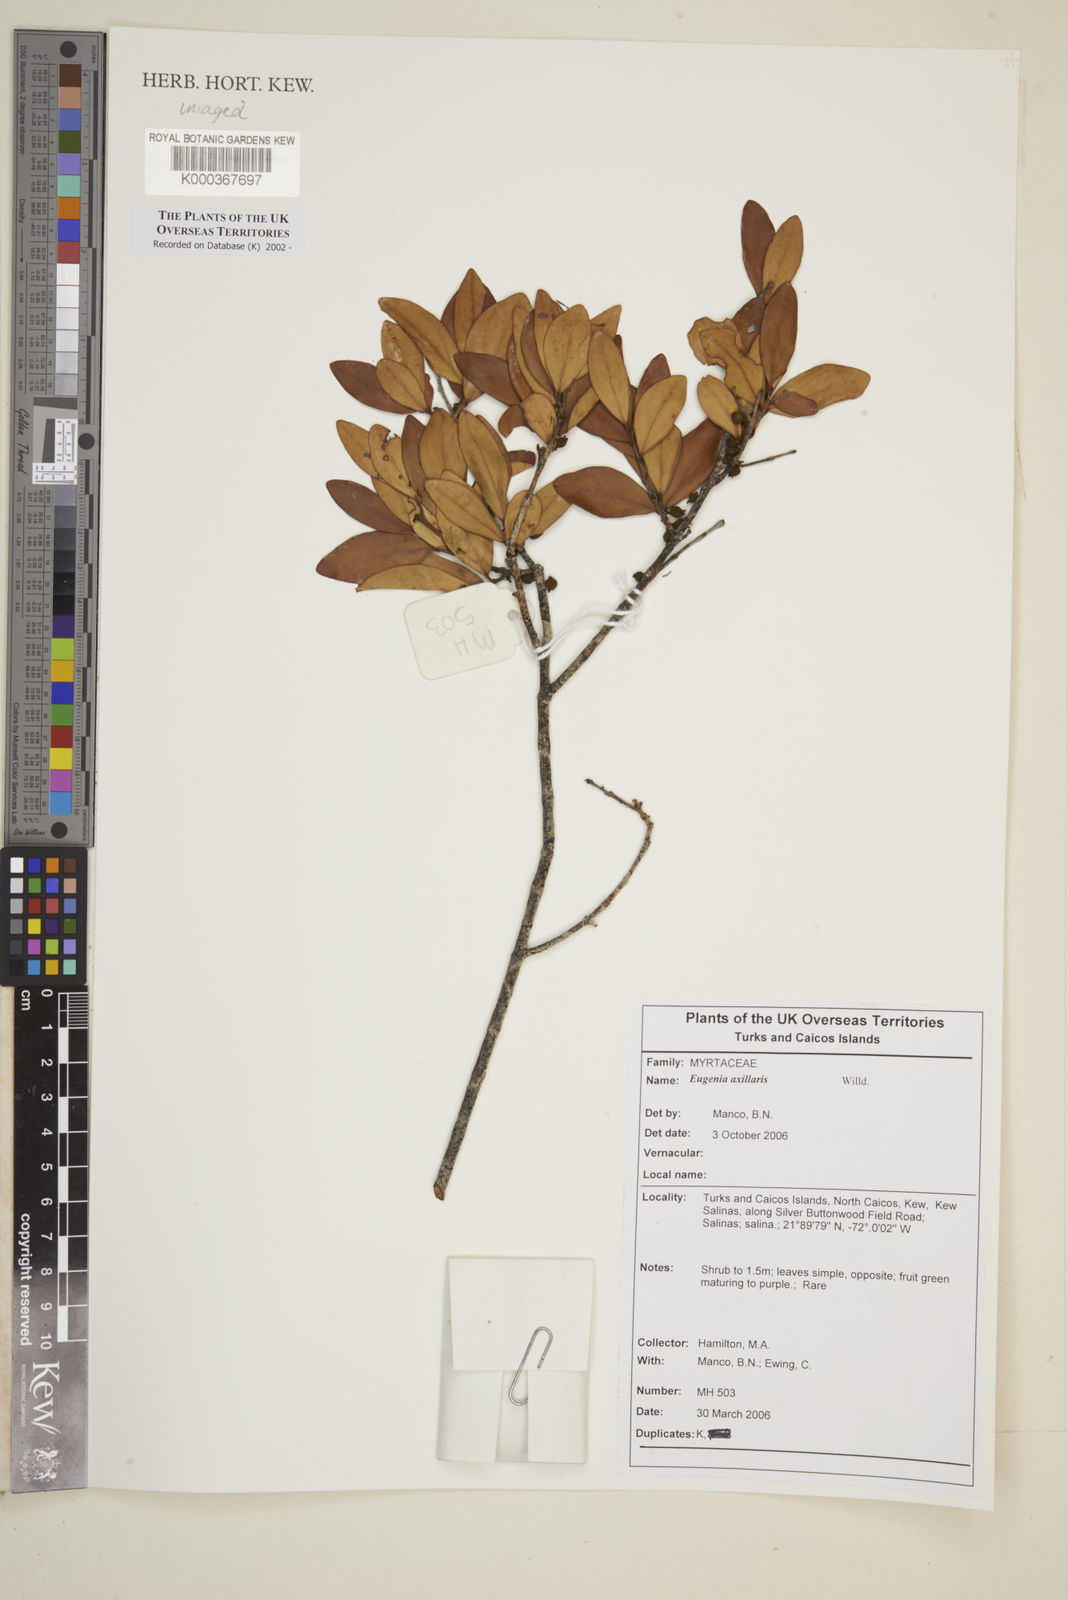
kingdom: Plantae
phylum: Tracheophyta
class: Magnoliopsida
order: Myrtales
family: Myrtaceae
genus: Eugenia
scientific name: Eugenia axillaris
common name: Choaky berry
